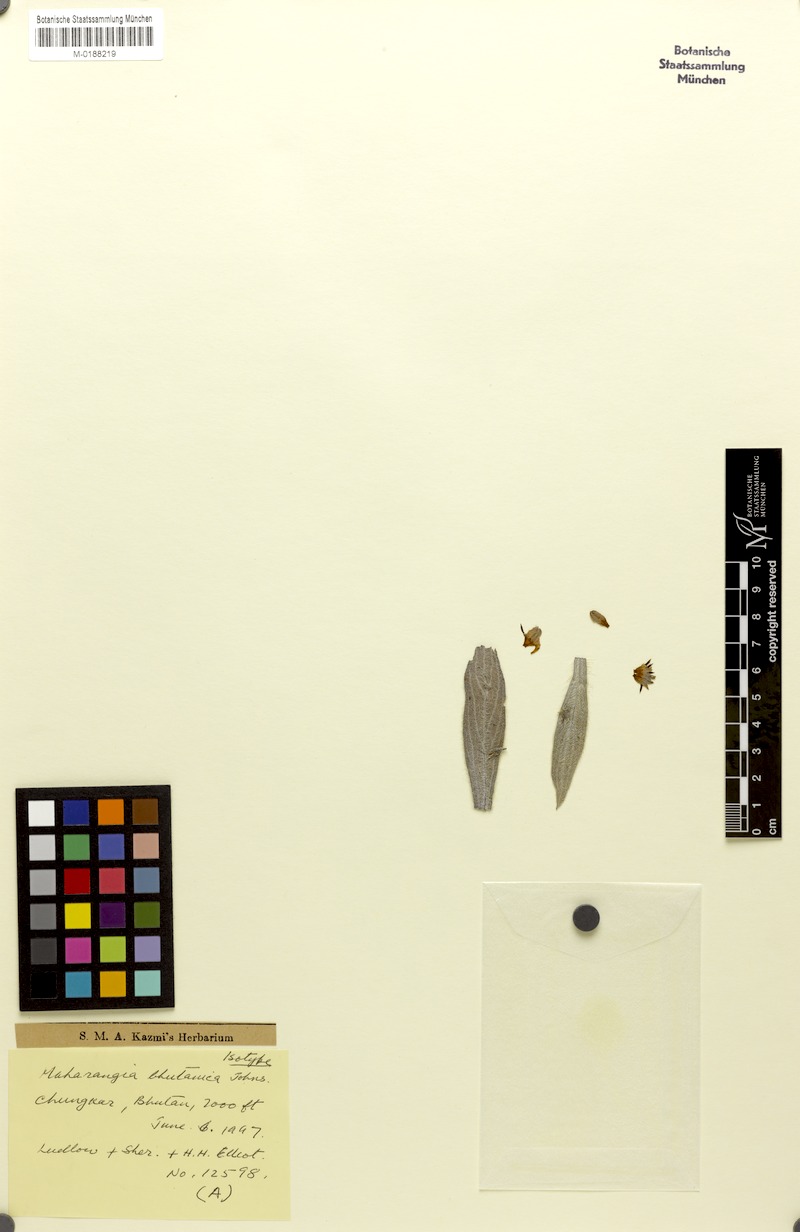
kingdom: Plantae
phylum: Tracheophyta
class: Magnoliopsida
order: Boraginales
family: Boraginaceae
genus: Maharanga
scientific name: Maharanga bhutanica
